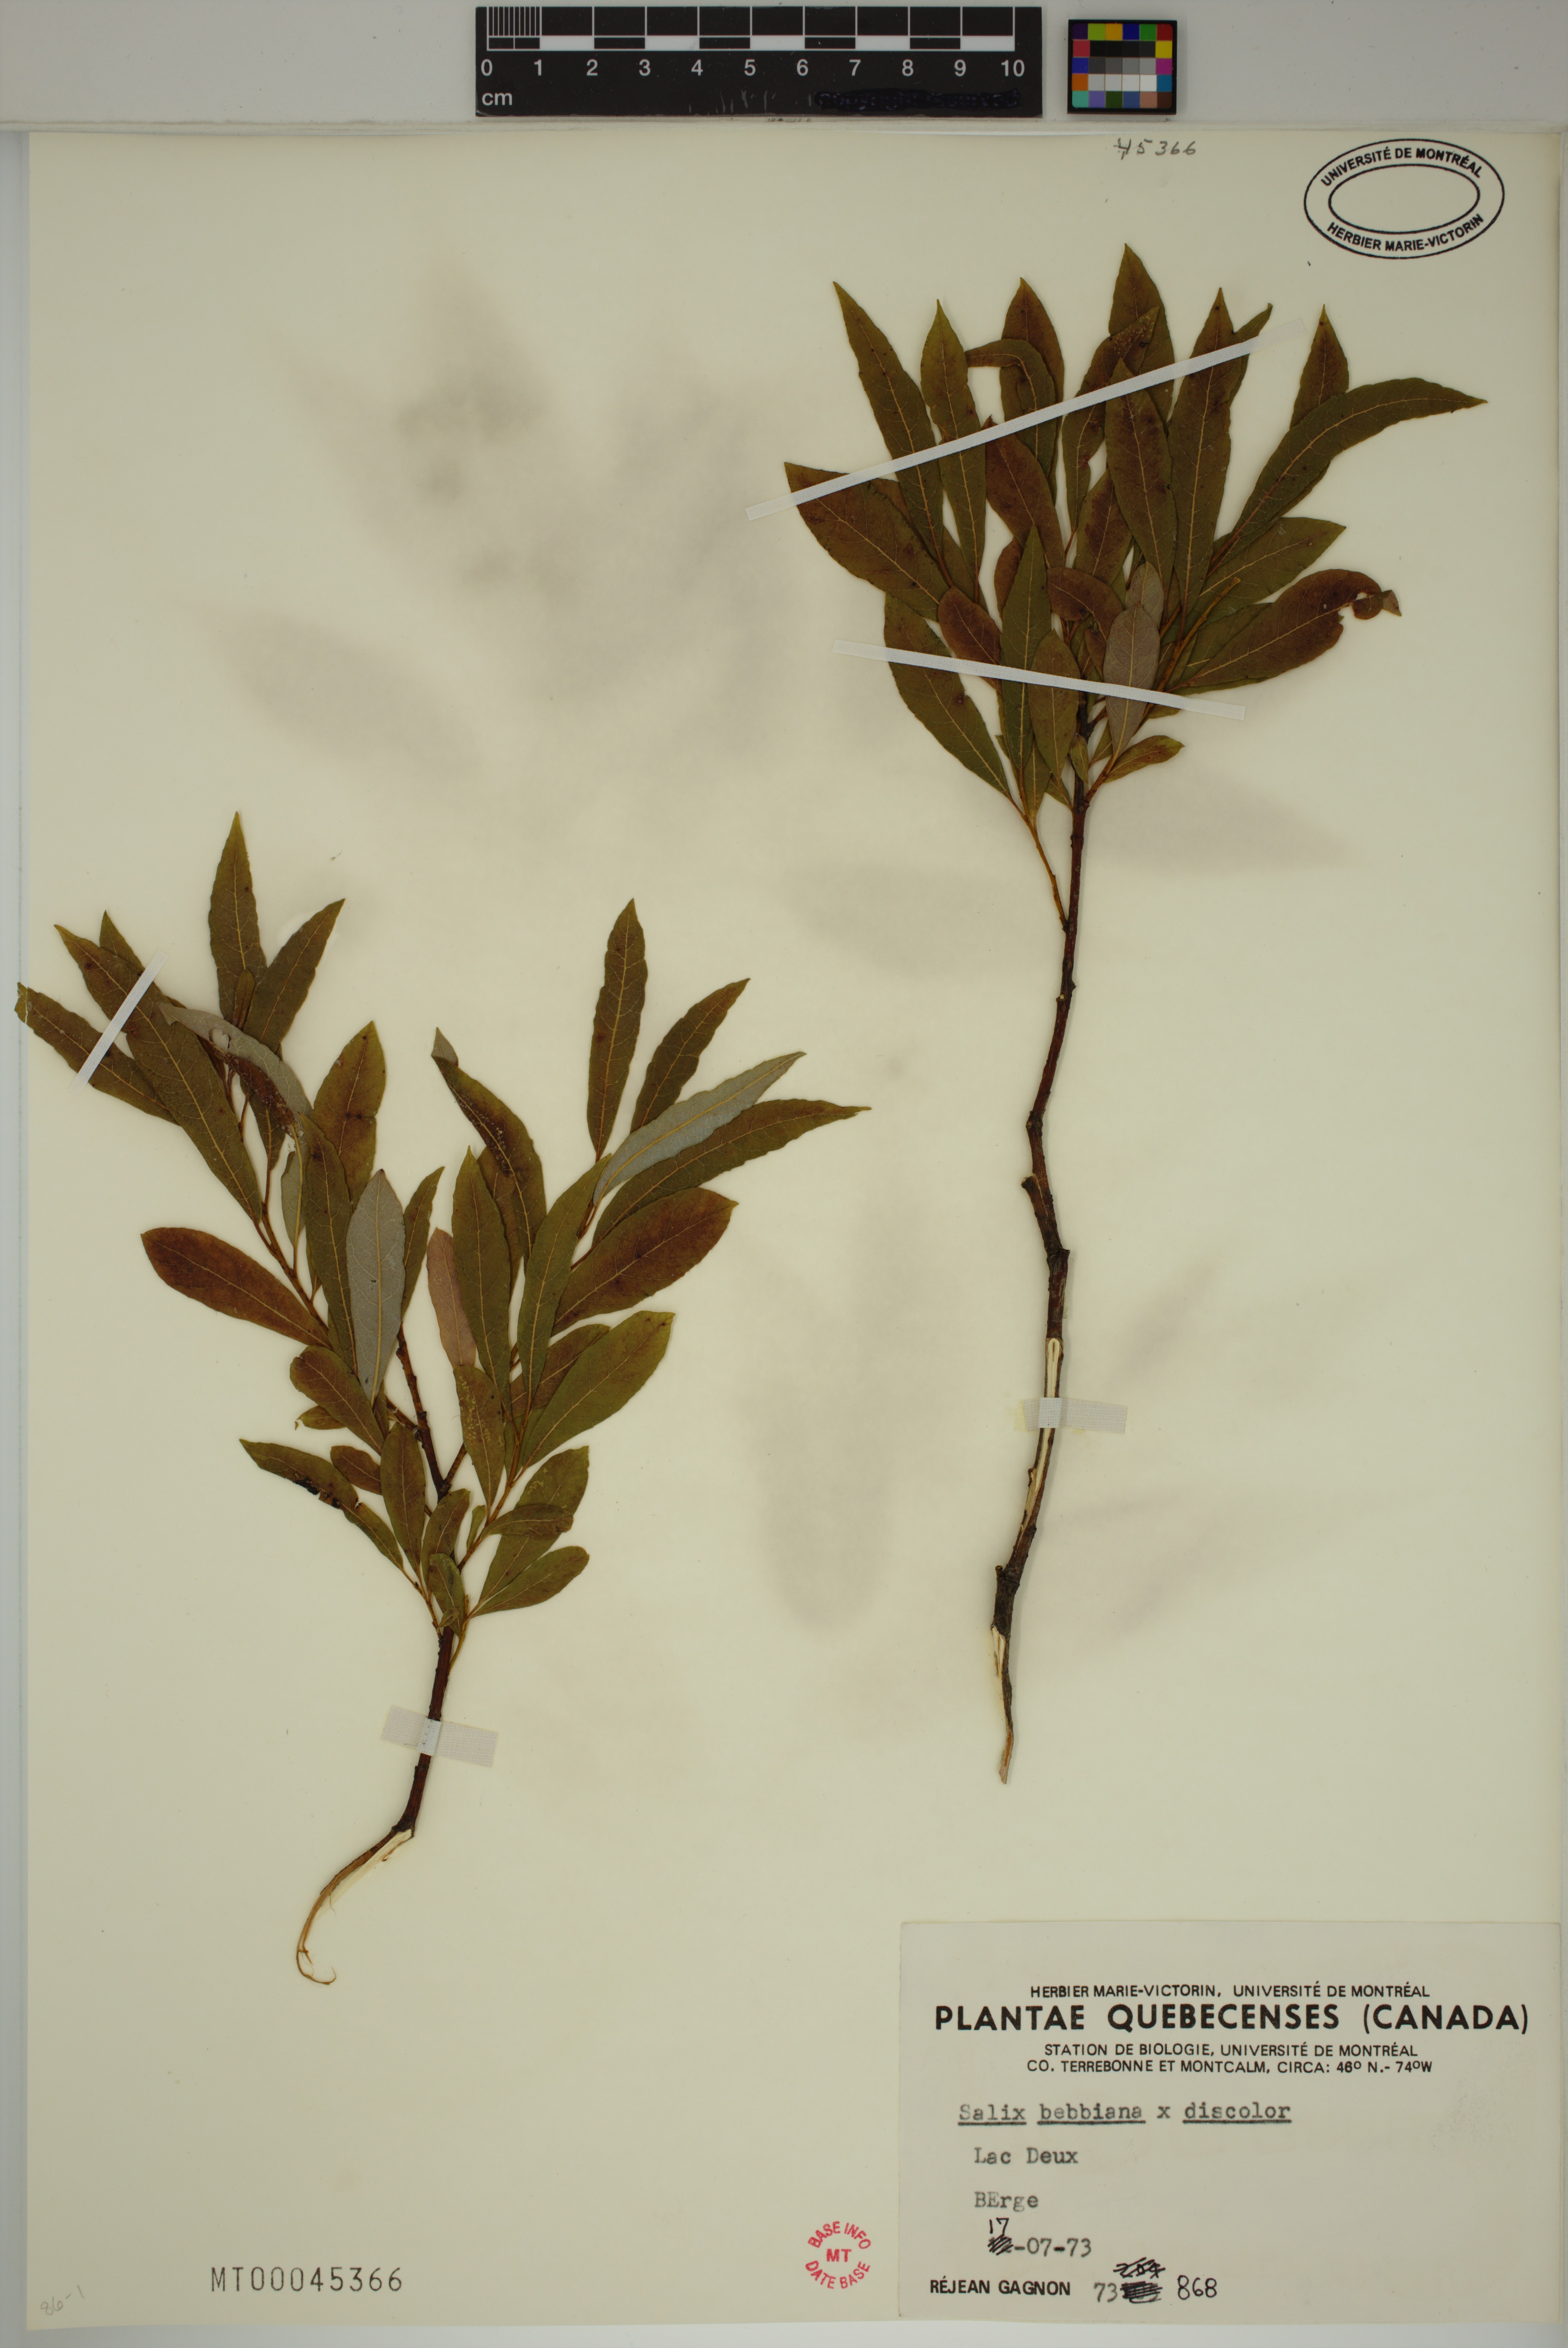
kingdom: Plantae
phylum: Tracheophyta
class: Magnoliopsida
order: Malpighiales
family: Salicaceae
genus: Salix
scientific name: Salix bebbiana
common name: Bebb's willow
